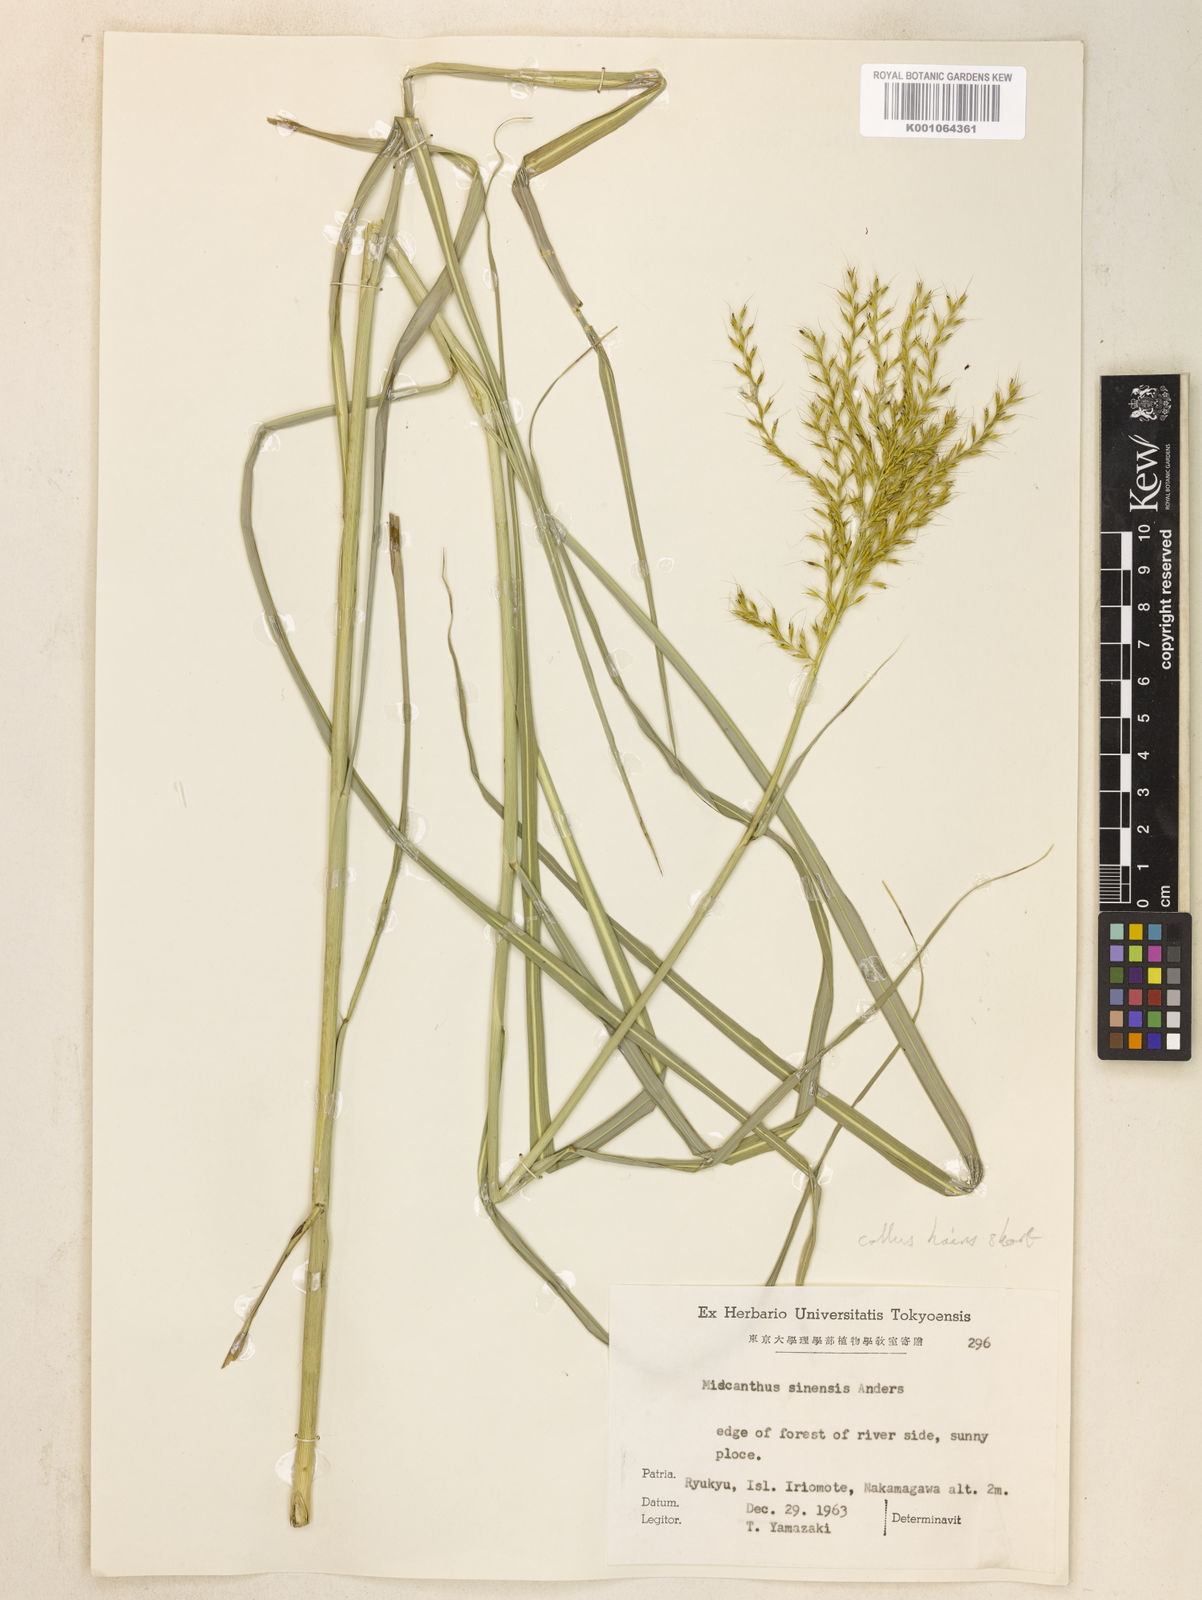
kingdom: Plantae
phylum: Tracheophyta
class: Liliopsida
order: Poales
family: Poaceae
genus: Miscanthus
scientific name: Miscanthus sinensis
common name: Chinese silvergrass
